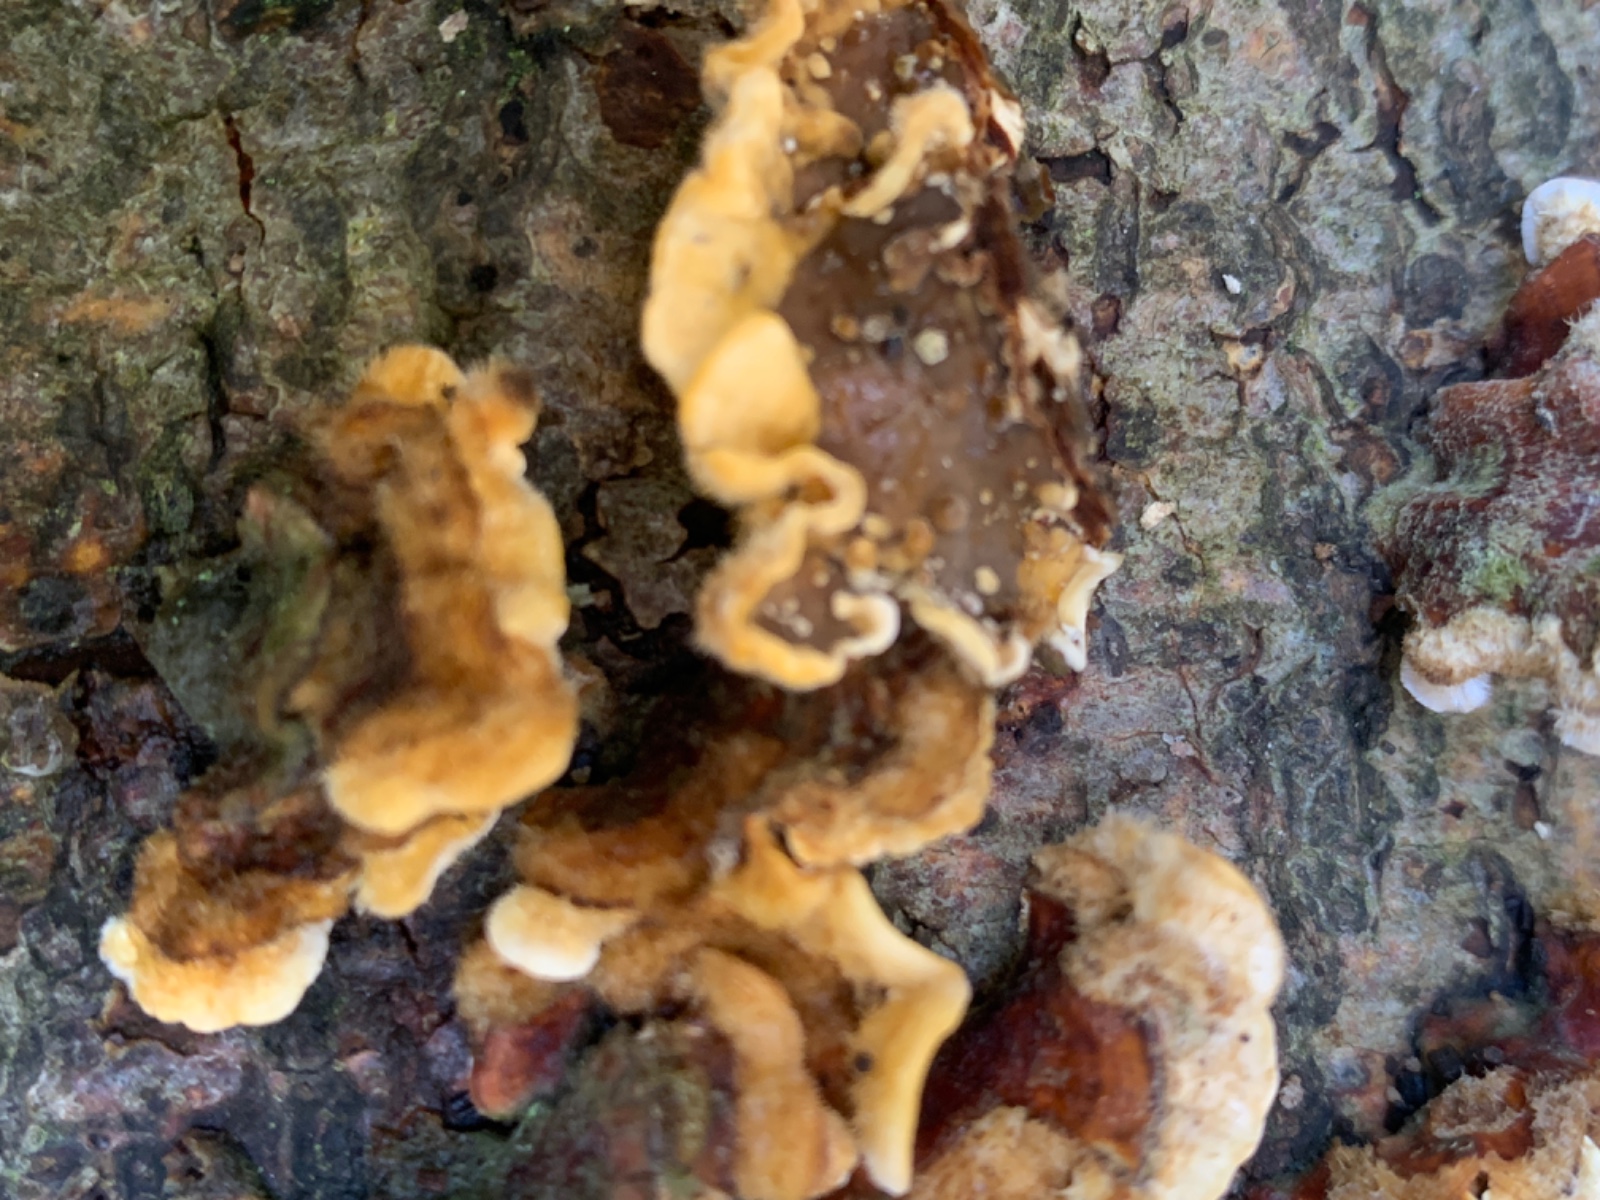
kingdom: Fungi
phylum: Basidiomycota
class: Agaricomycetes
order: Russulales
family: Stereaceae
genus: Stereum
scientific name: Stereum hirsutum
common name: håret lædersvamp
